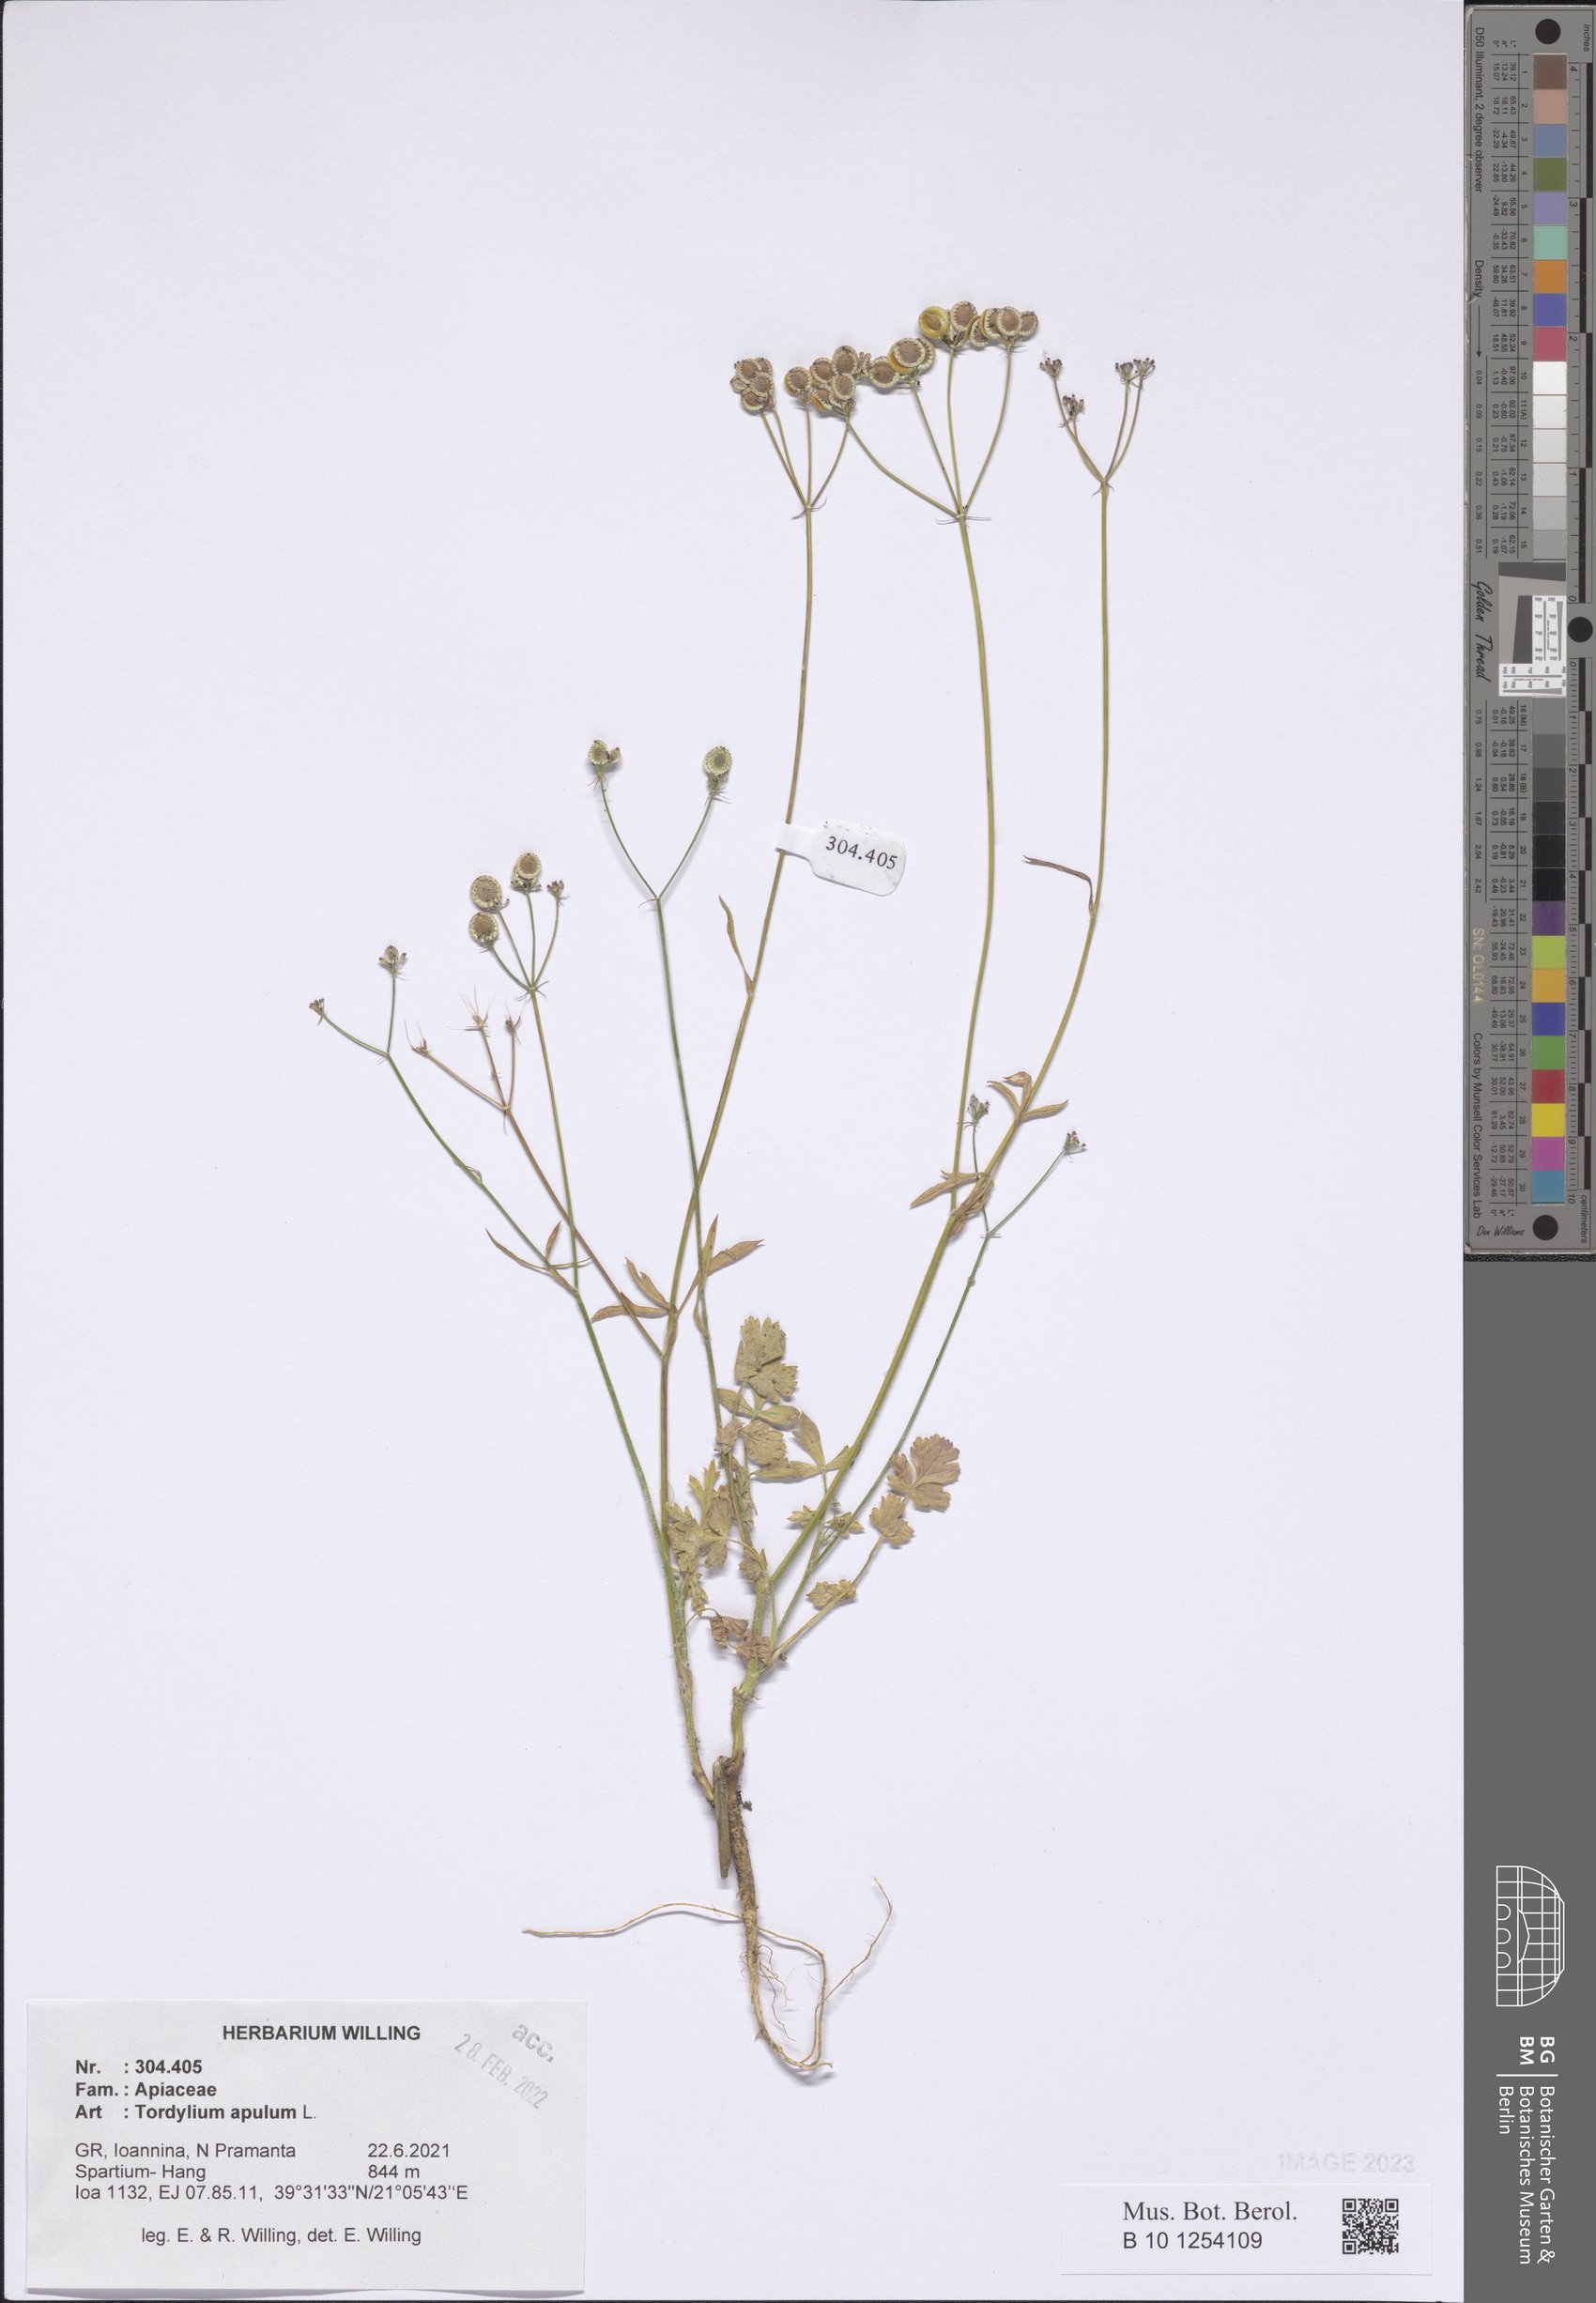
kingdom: Plantae
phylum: Tracheophyta
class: Magnoliopsida
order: Apiales
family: Apiaceae
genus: Tordylium
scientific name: Tordylium apulum
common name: Mediterranean hartwort
